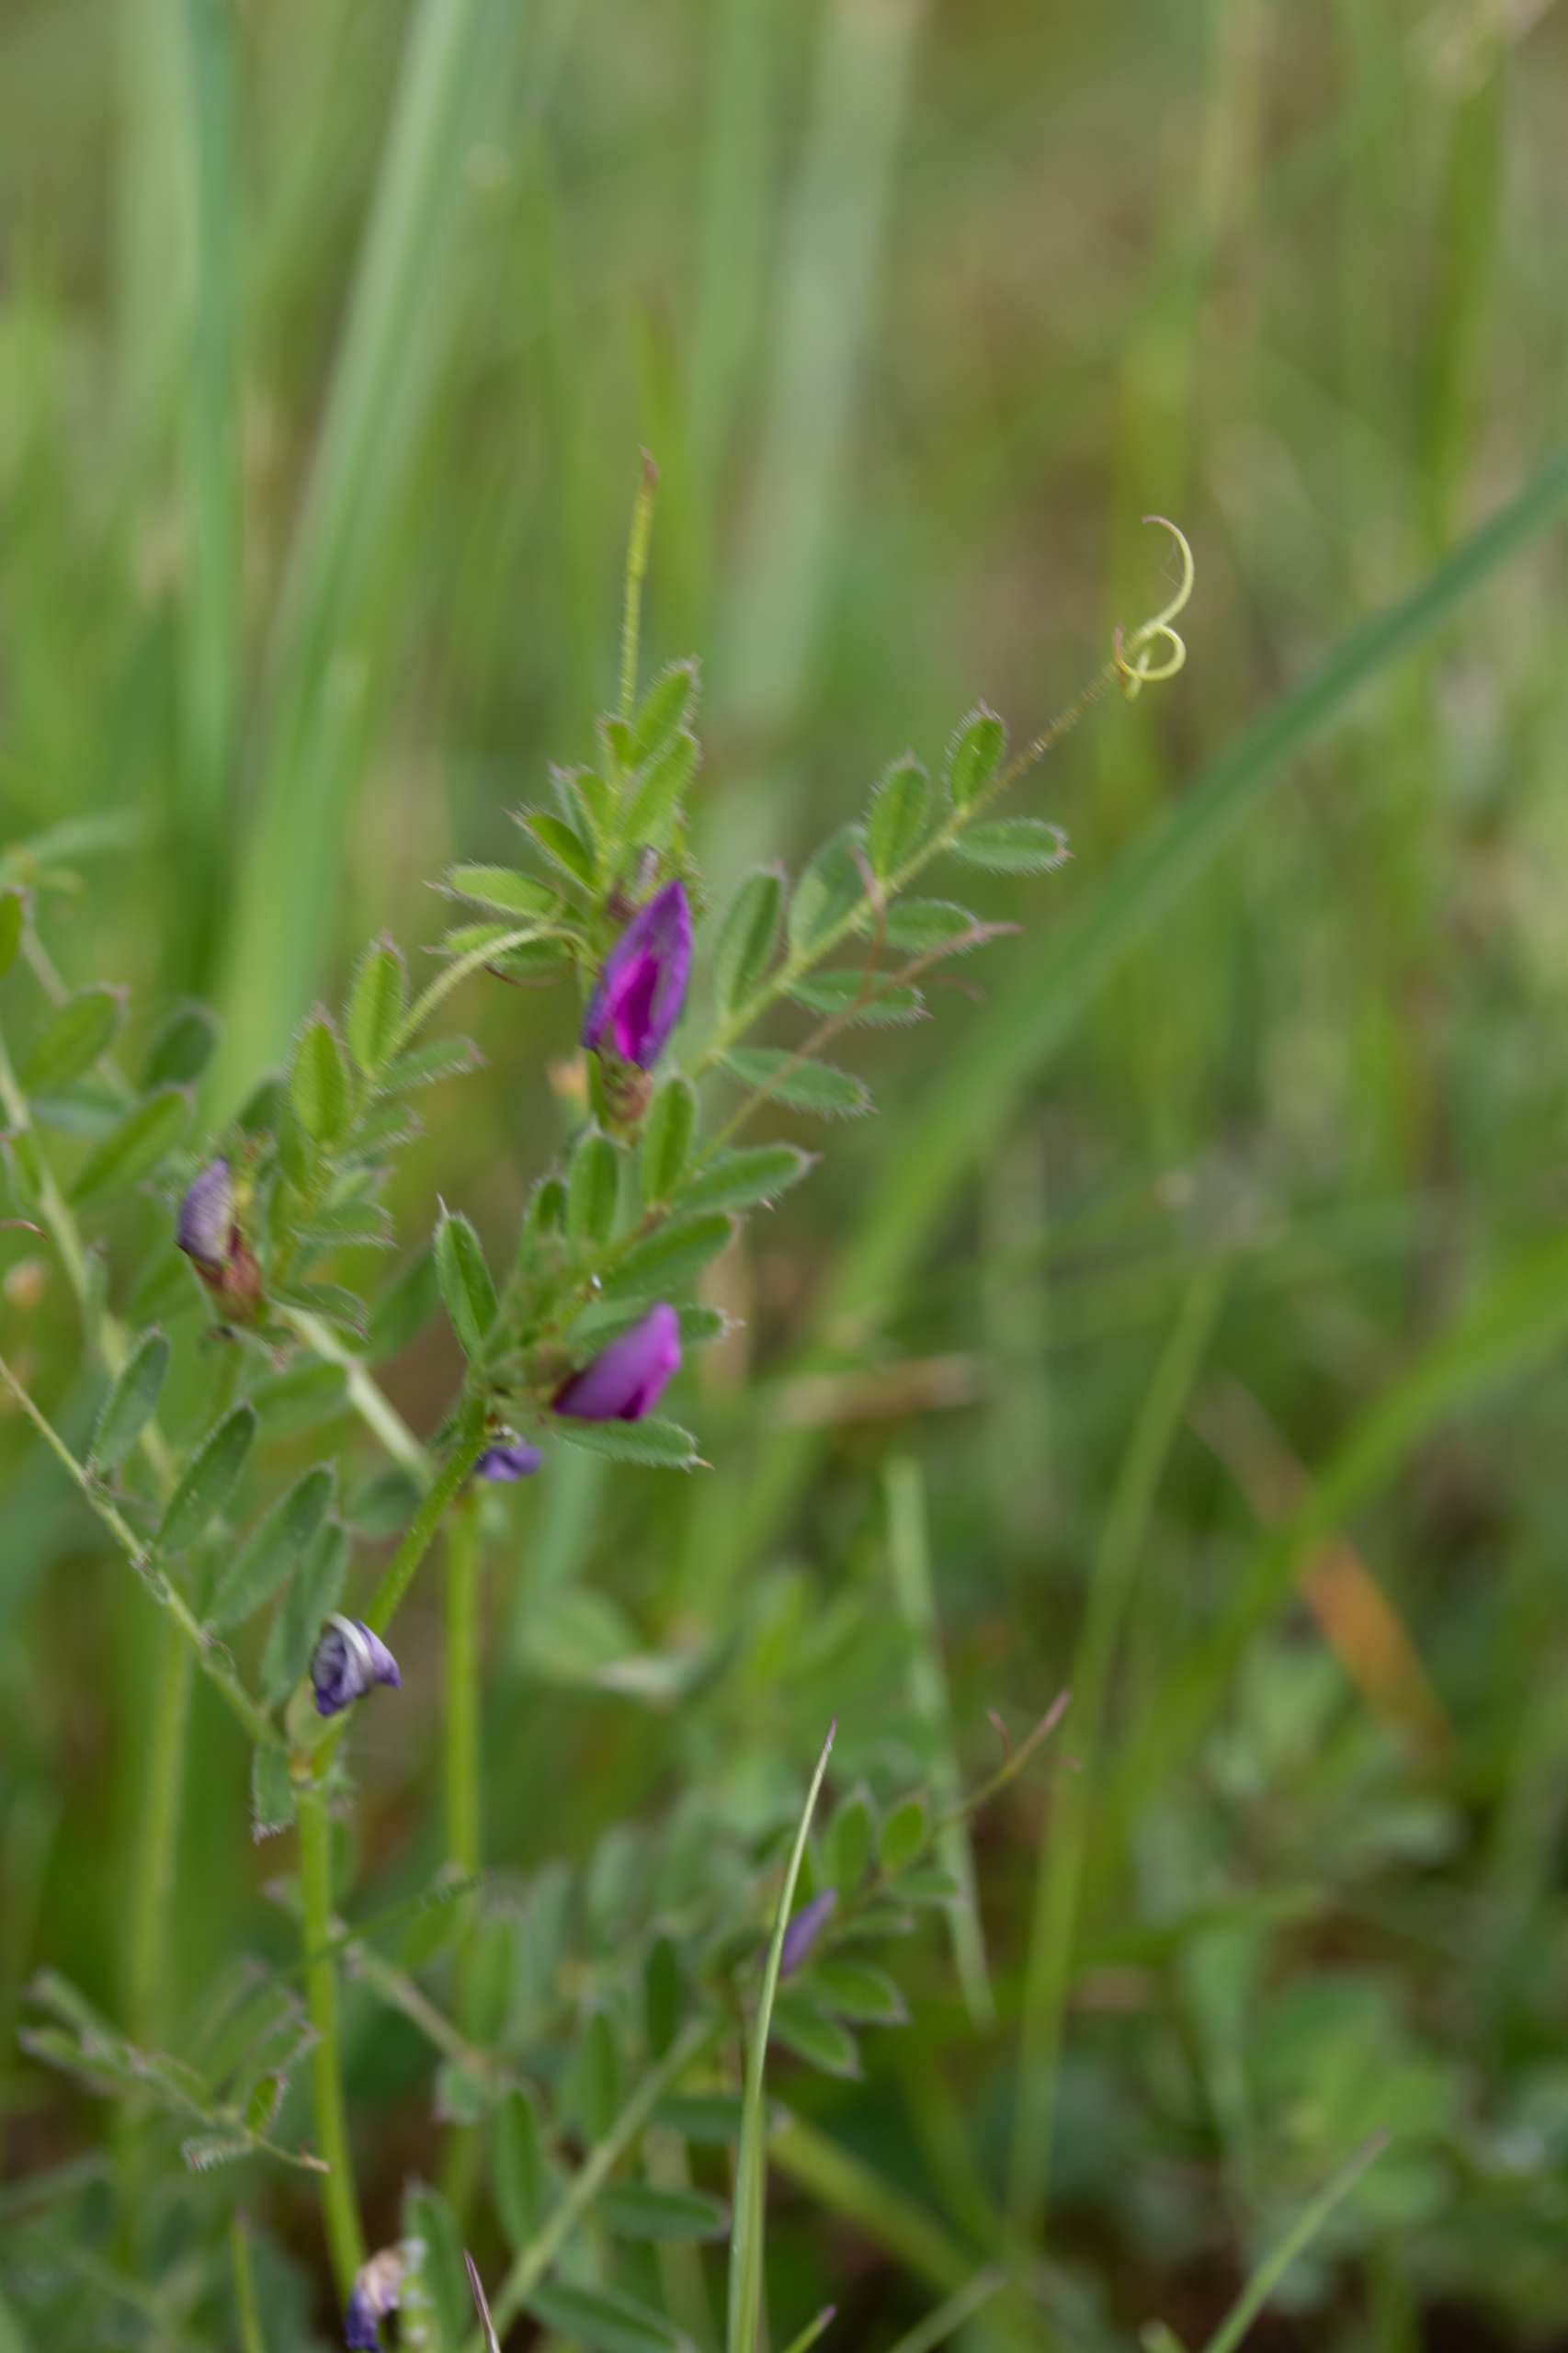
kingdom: Plantae
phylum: Tracheophyta
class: Magnoliopsida
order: Fabales
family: Fabaceae
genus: Vicia
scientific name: Vicia sativa
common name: Smalbladet vikke
